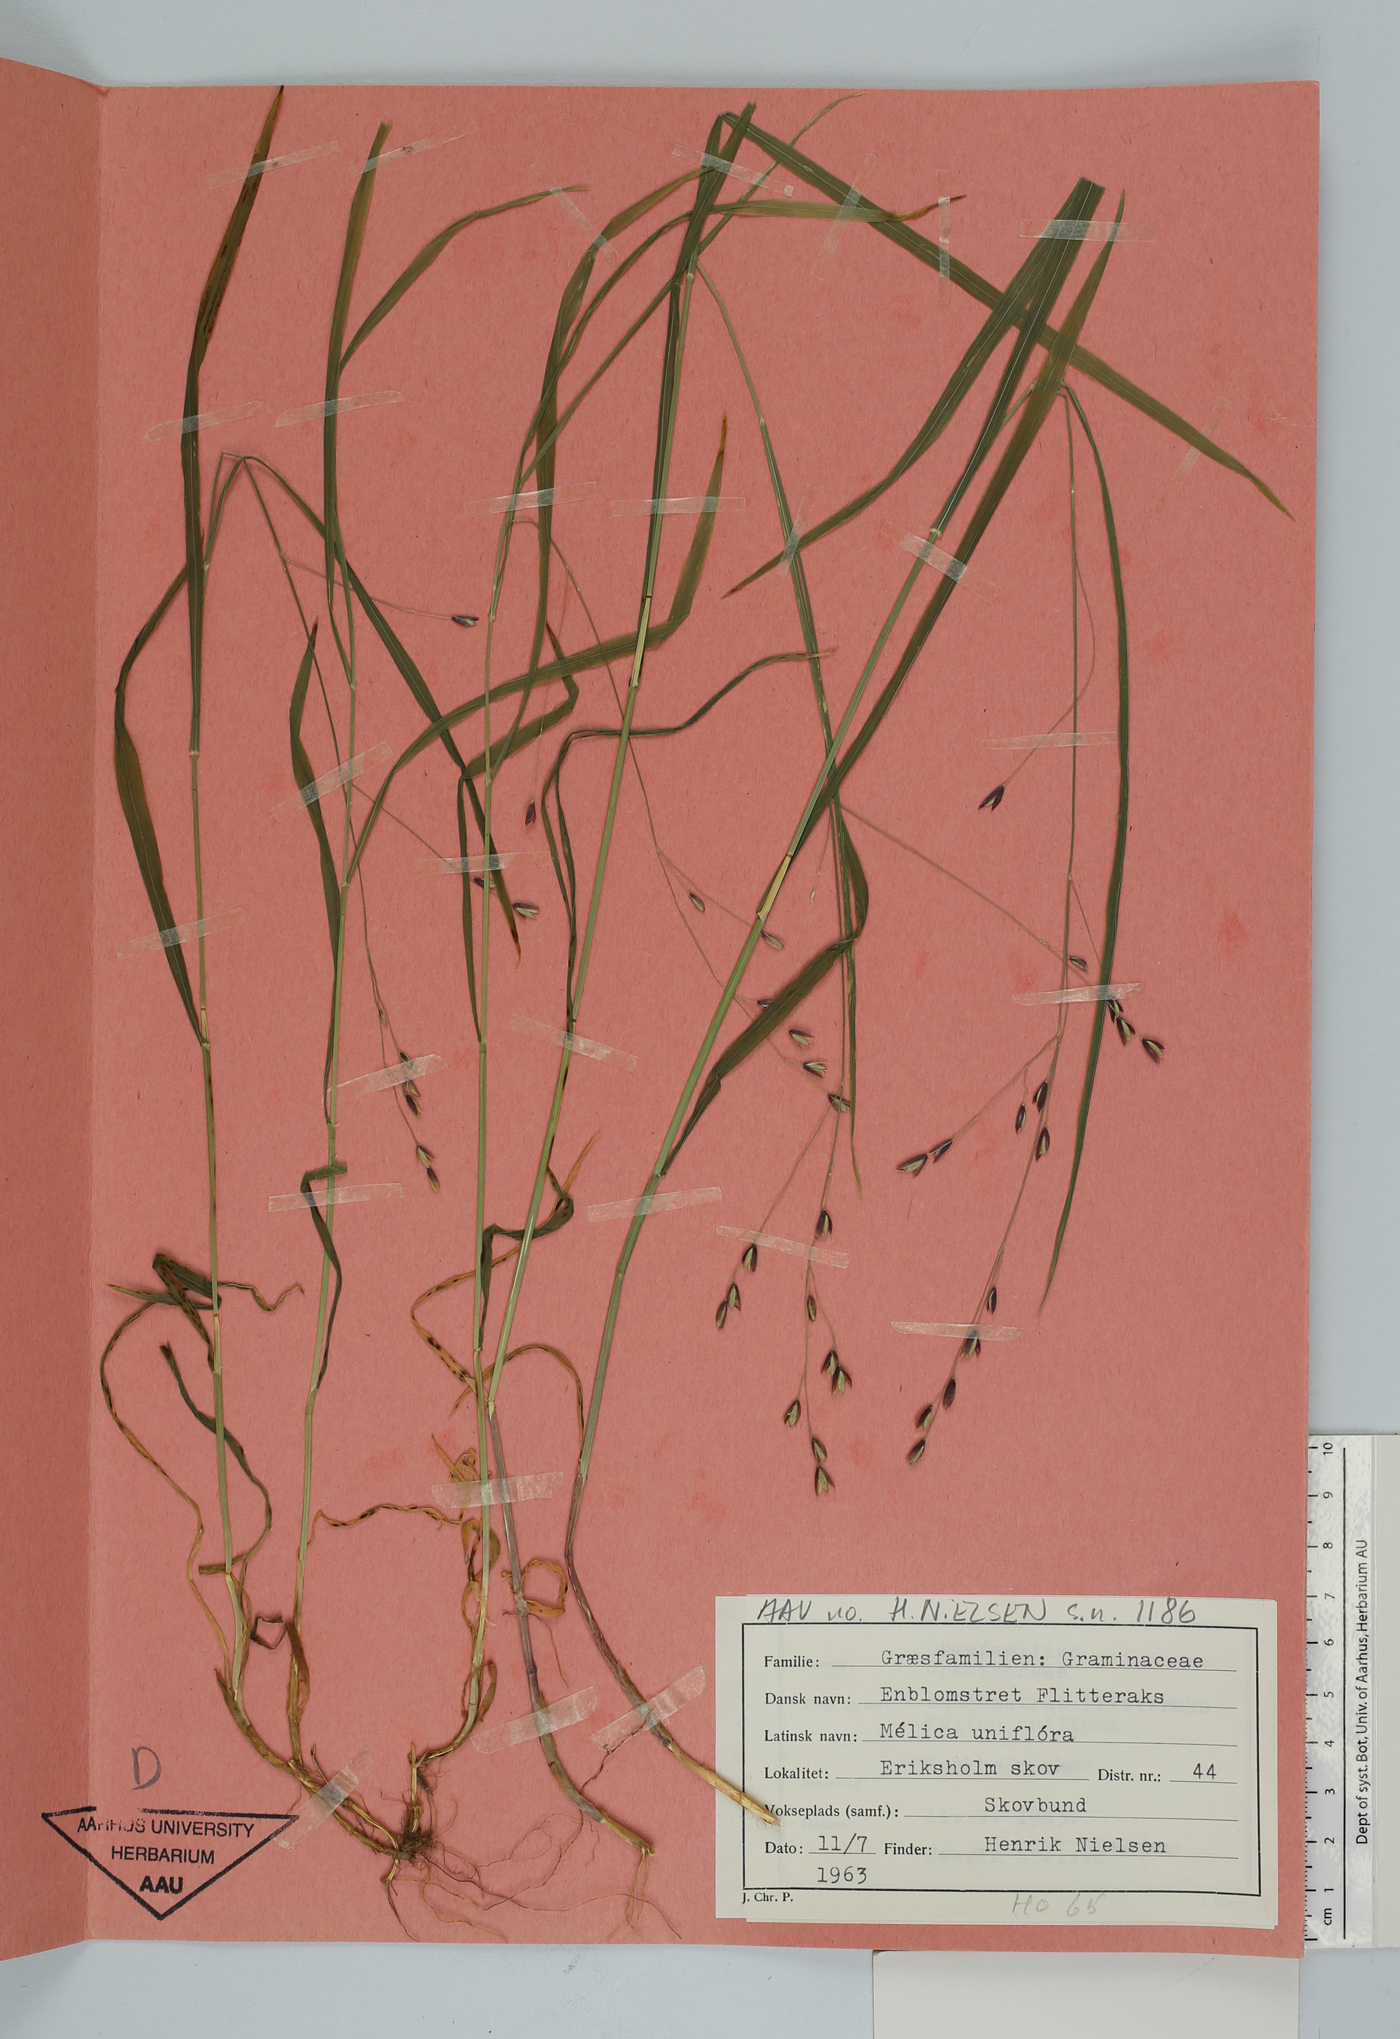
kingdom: Plantae
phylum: Tracheophyta
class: Liliopsida
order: Poales
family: Poaceae
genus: Melica
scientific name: Melica uniflora
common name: Wood melick
